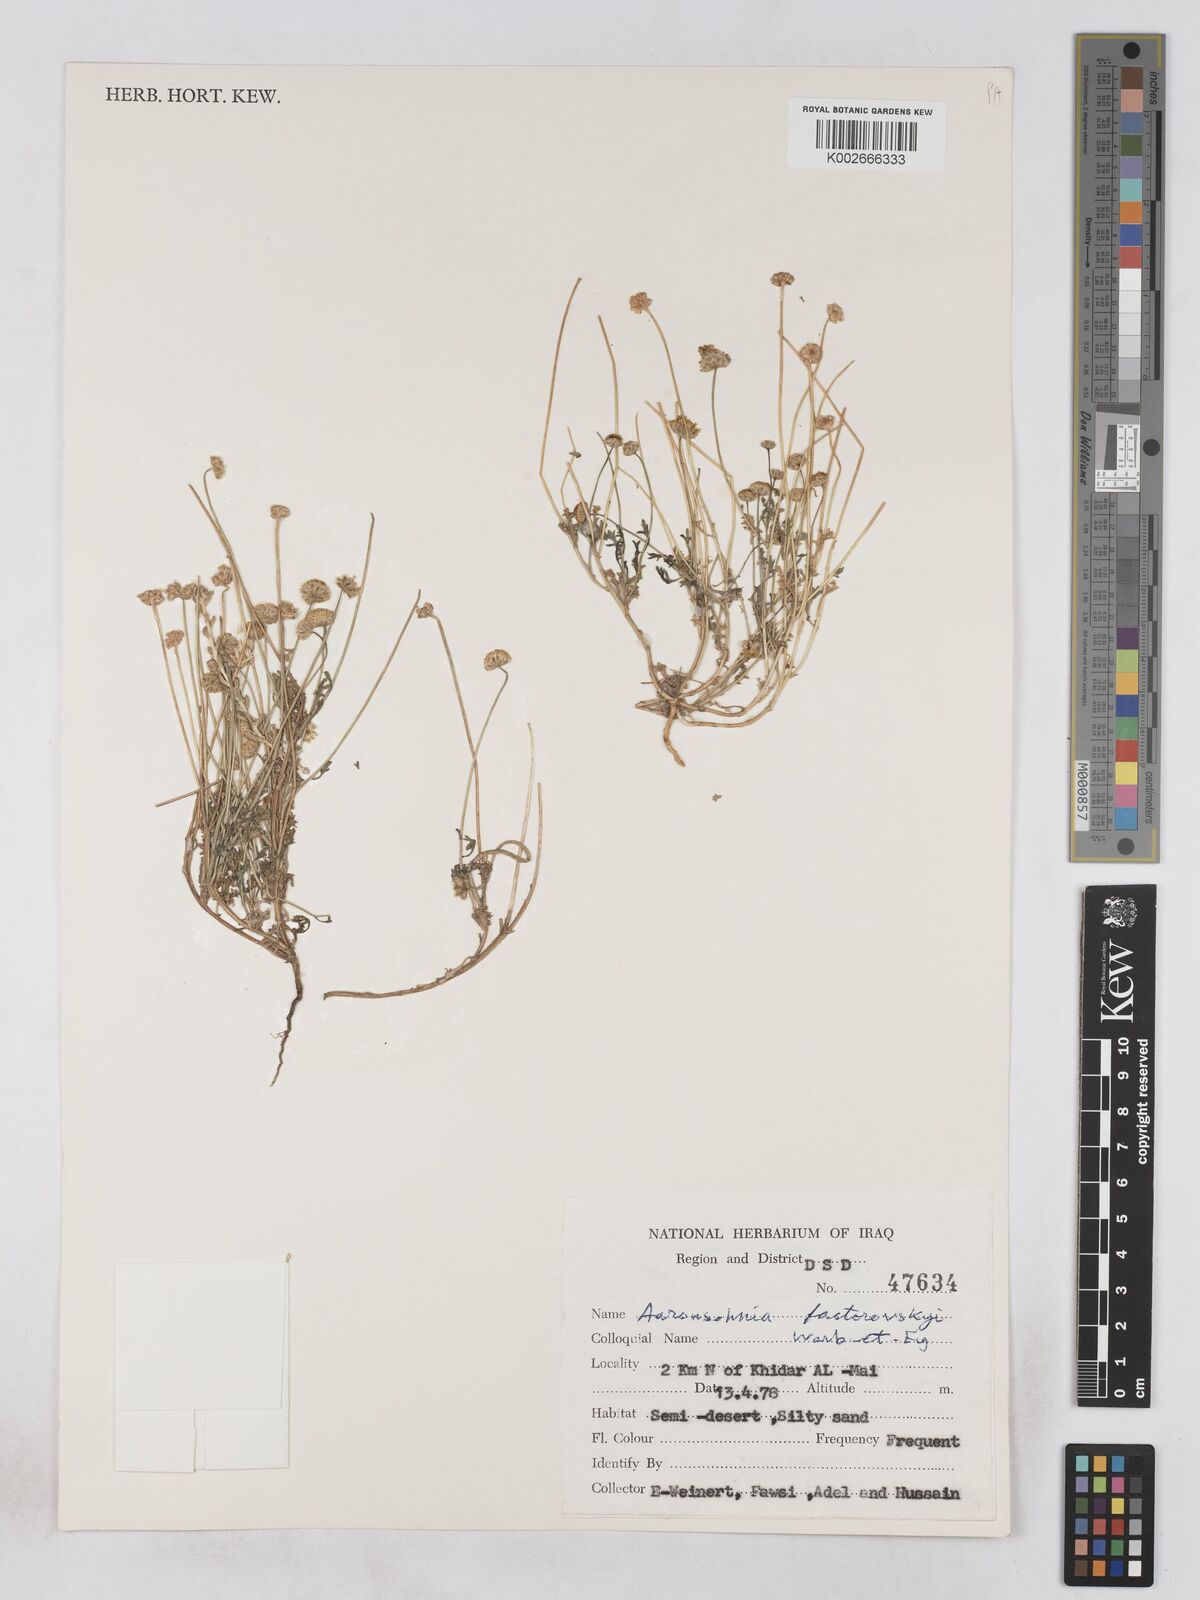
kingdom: Plantae
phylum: Tracheophyta
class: Magnoliopsida
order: Asterales
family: Asteraceae
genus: Otoglyphis
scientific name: Otoglyphis factorovskyi
